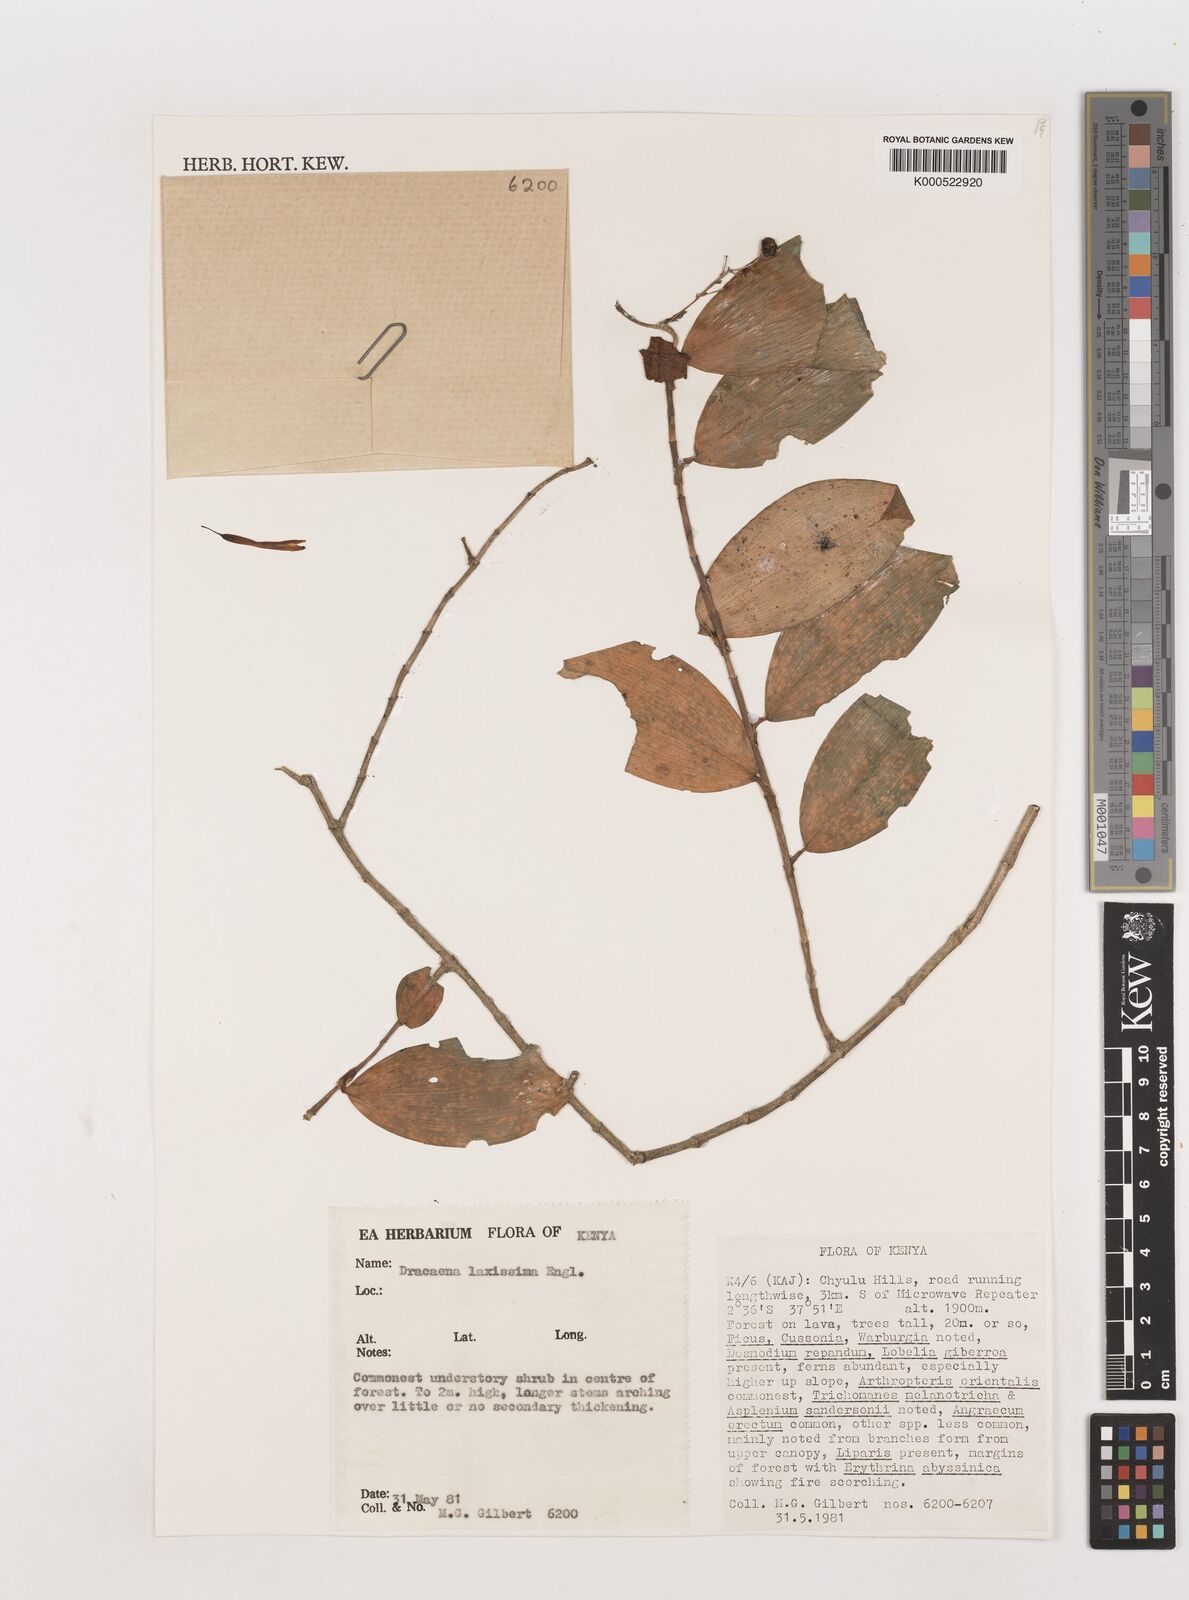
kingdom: Plantae
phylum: Tracheophyta
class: Liliopsida
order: Asparagales
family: Asparagaceae
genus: Dracaena
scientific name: Dracaena laxissima
